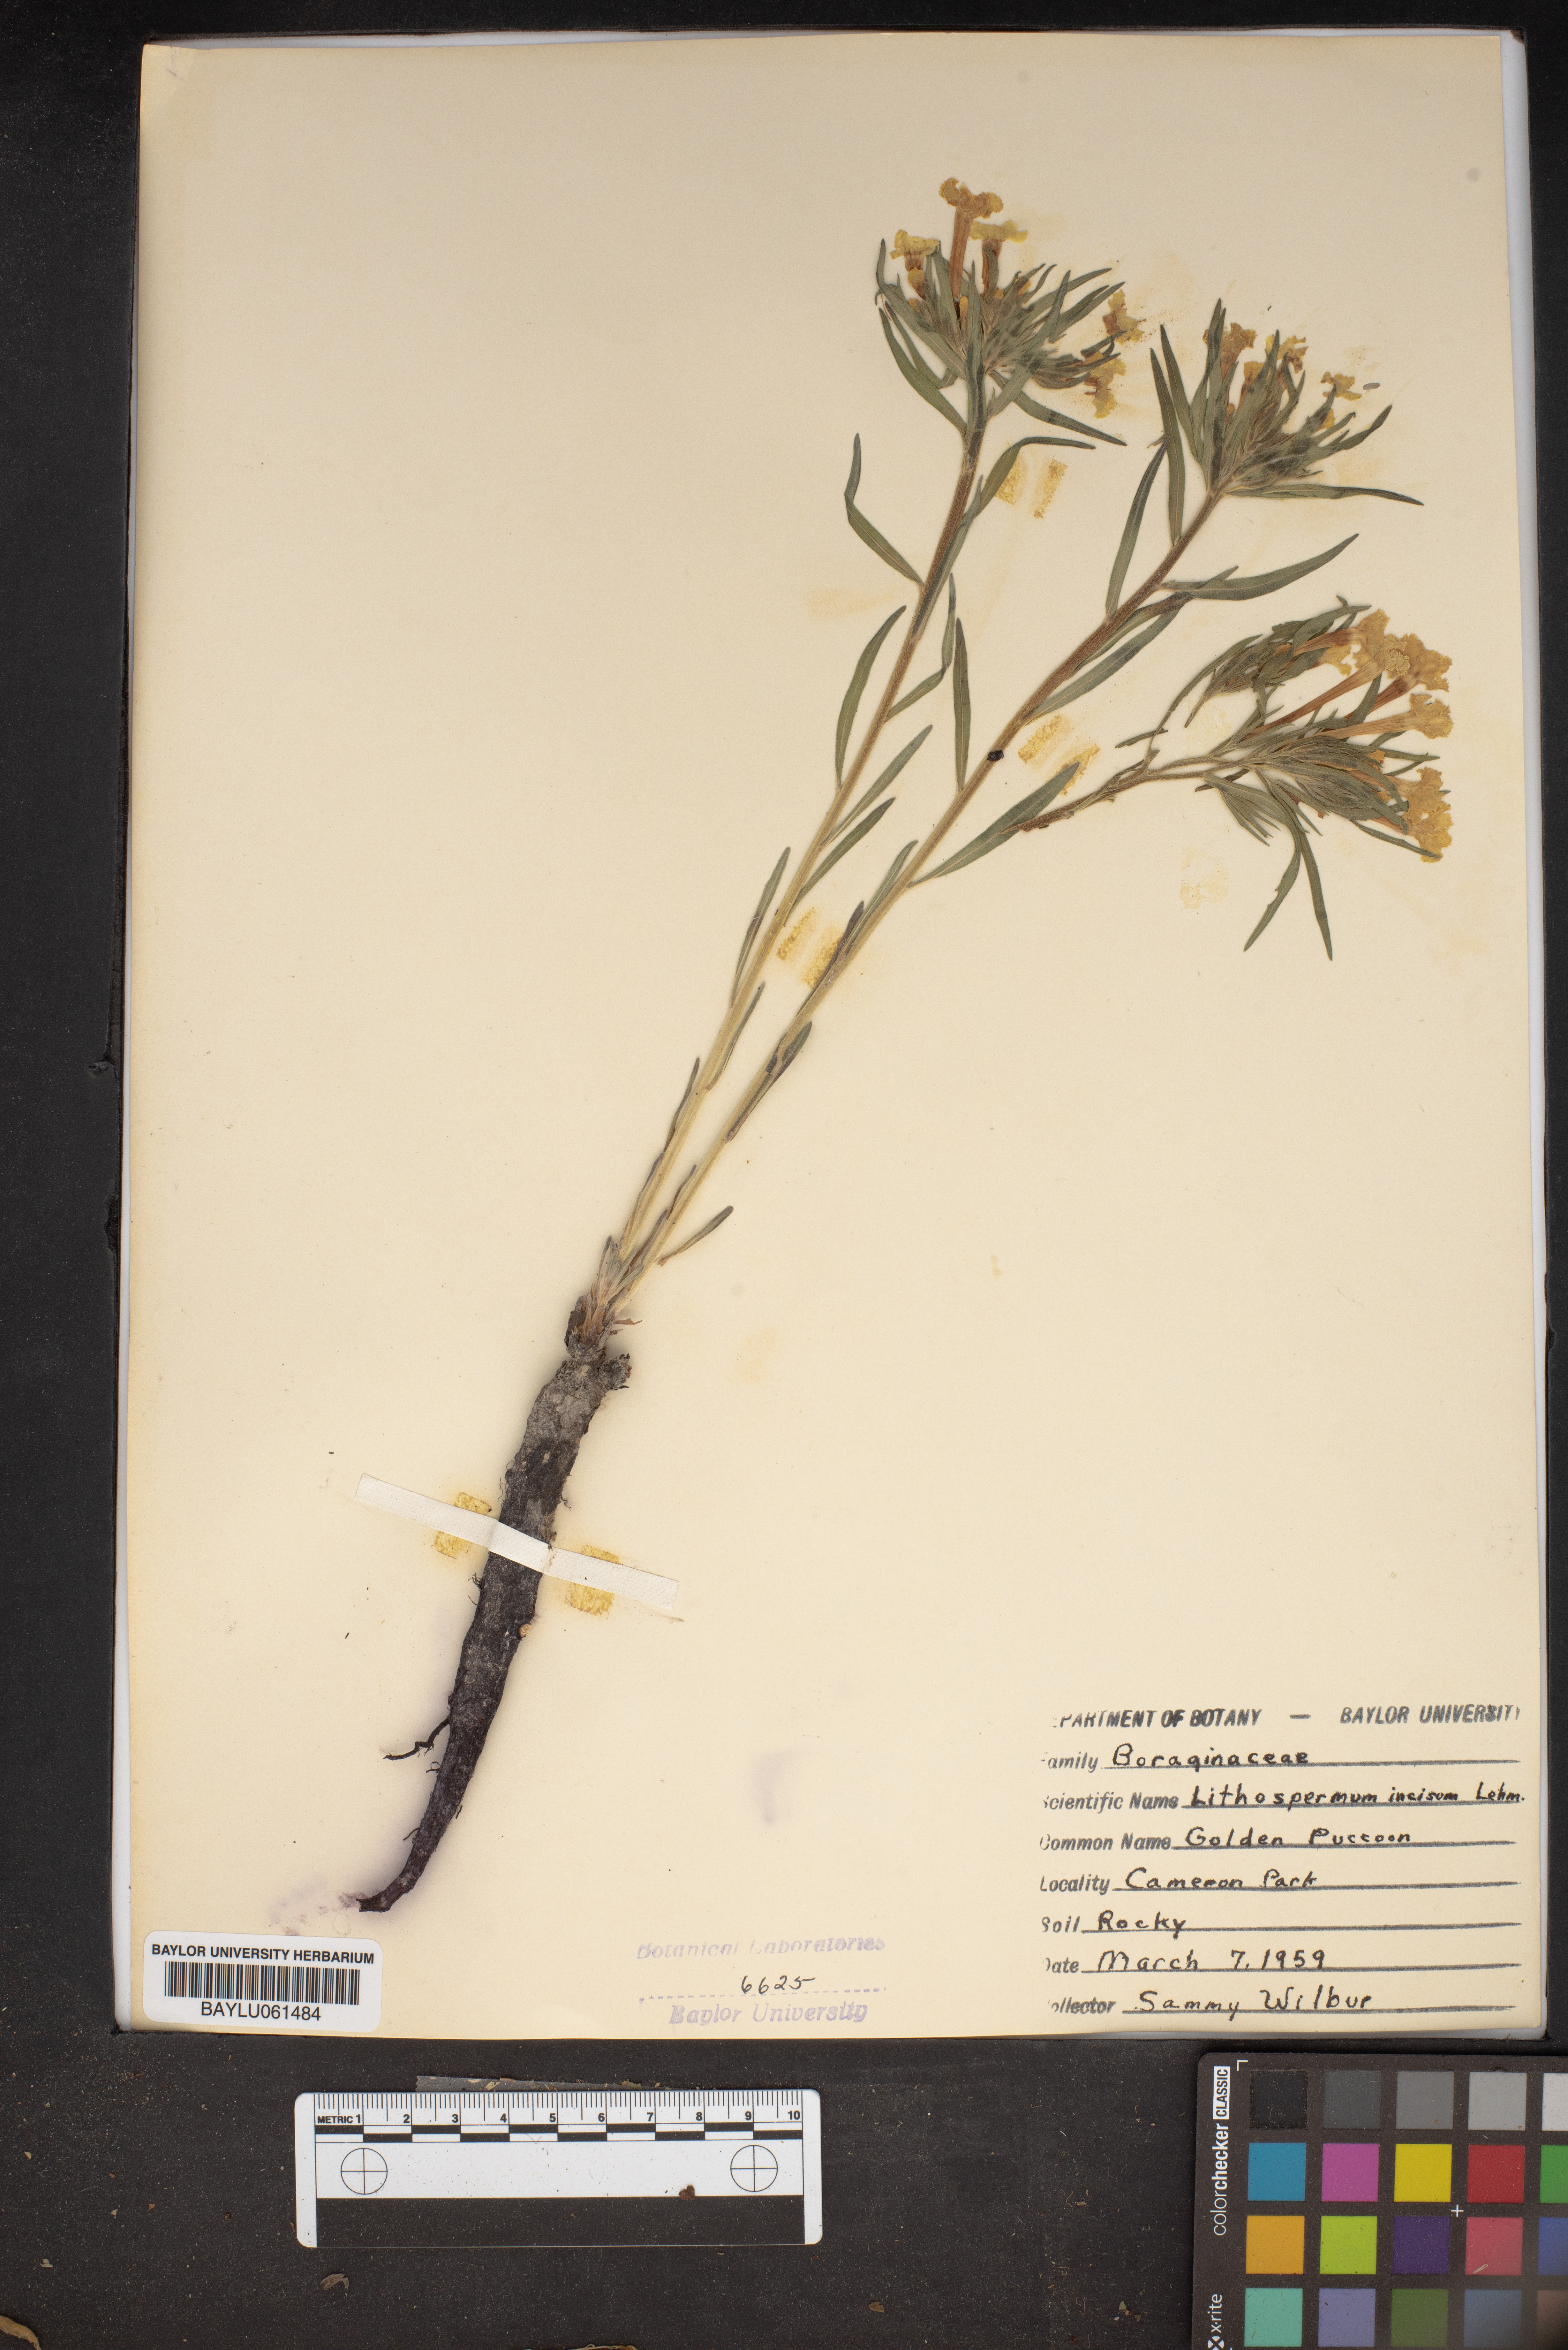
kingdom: Plantae
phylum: Tracheophyta
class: Magnoliopsida
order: Boraginales
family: Boraginaceae
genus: Lithospermum
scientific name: Lithospermum incisum
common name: Fringed gromwell
